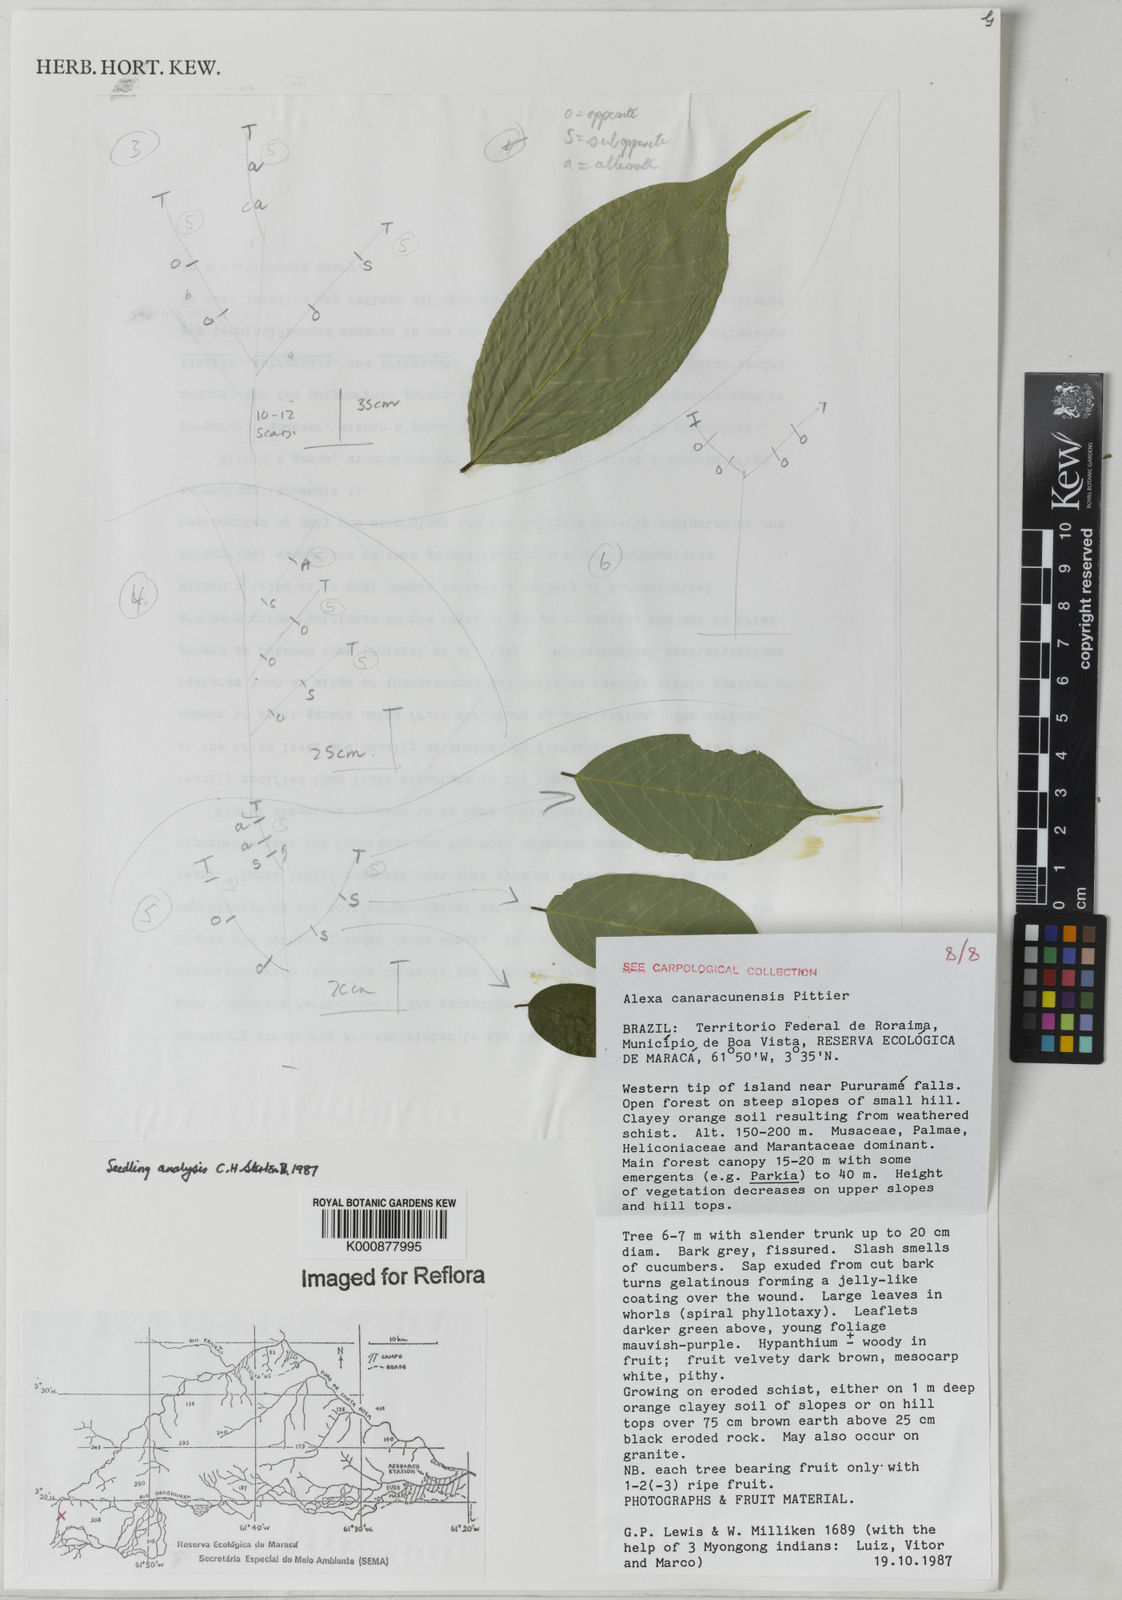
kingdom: Plantae
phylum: Tracheophyta
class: Magnoliopsida
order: Fabales
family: Fabaceae
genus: Alexa
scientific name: Alexa canaracunensis
